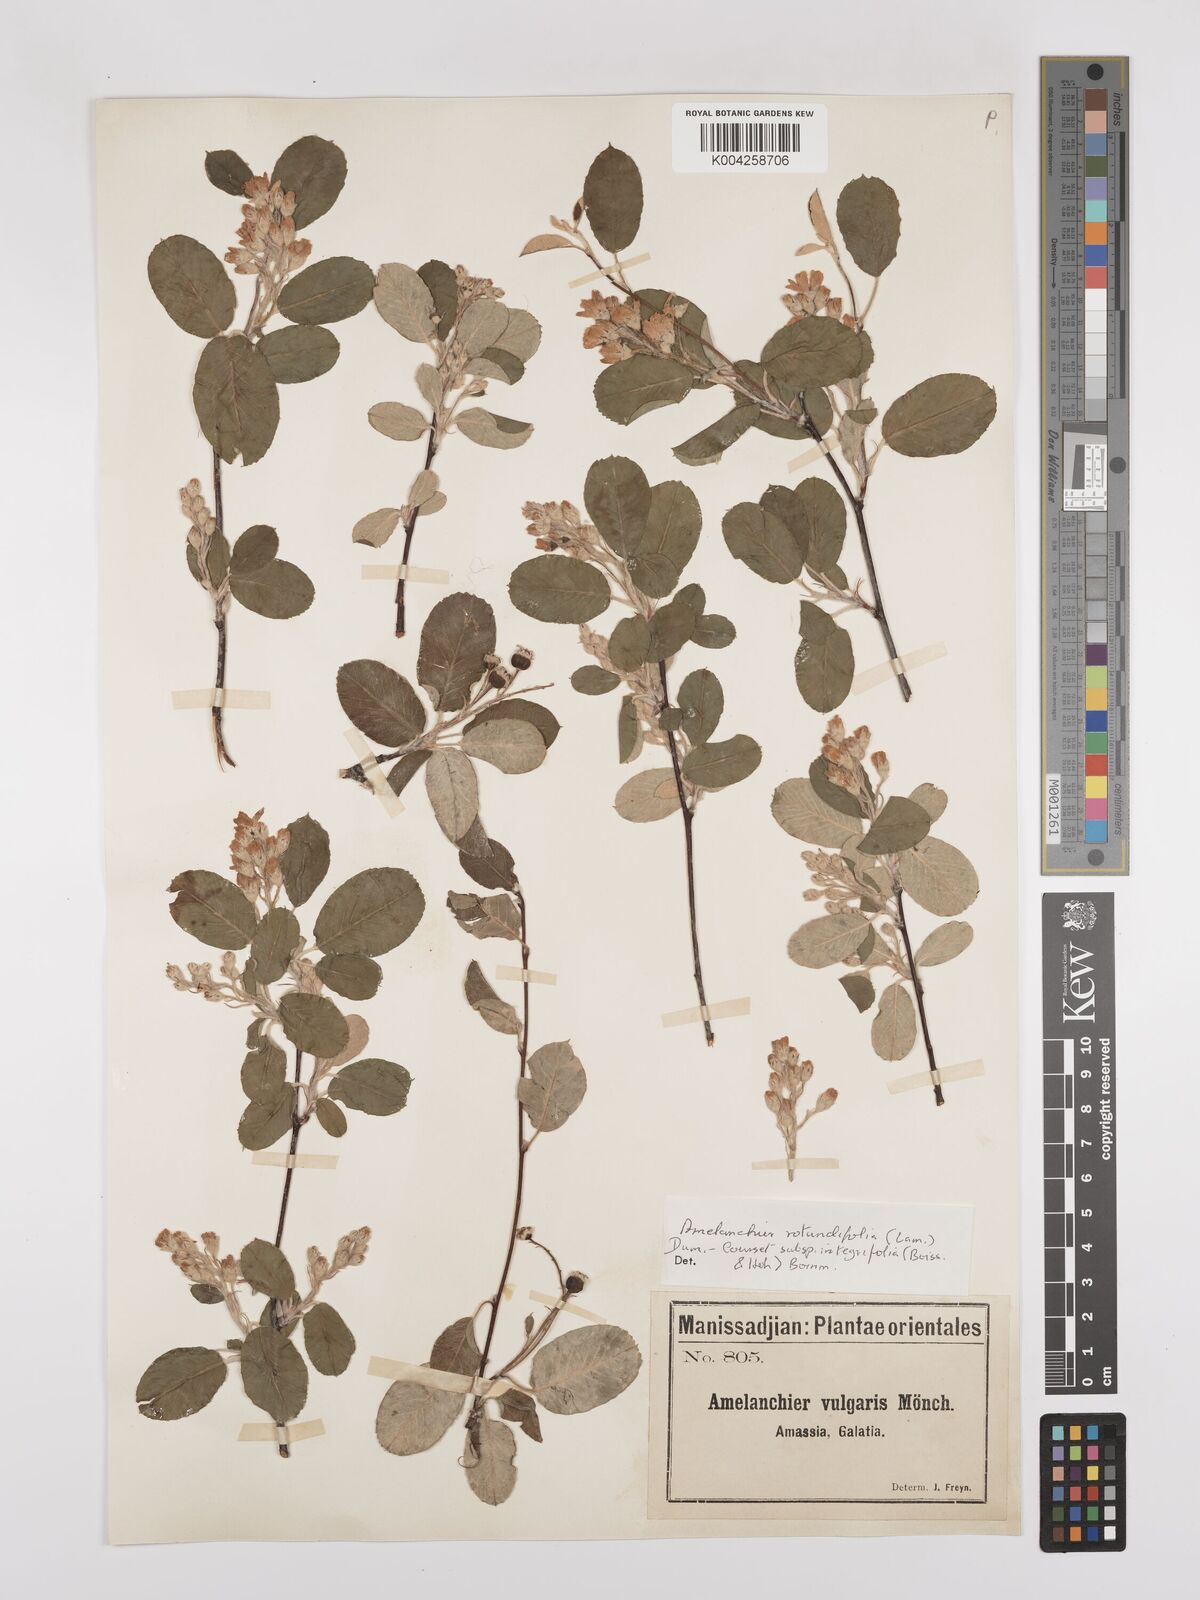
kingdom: Plantae
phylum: Tracheophyta
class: Magnoliopsida
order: Rosales
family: Rosaceae
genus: Amelanchier
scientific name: Amelanchier ovalis
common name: Serviceberry
